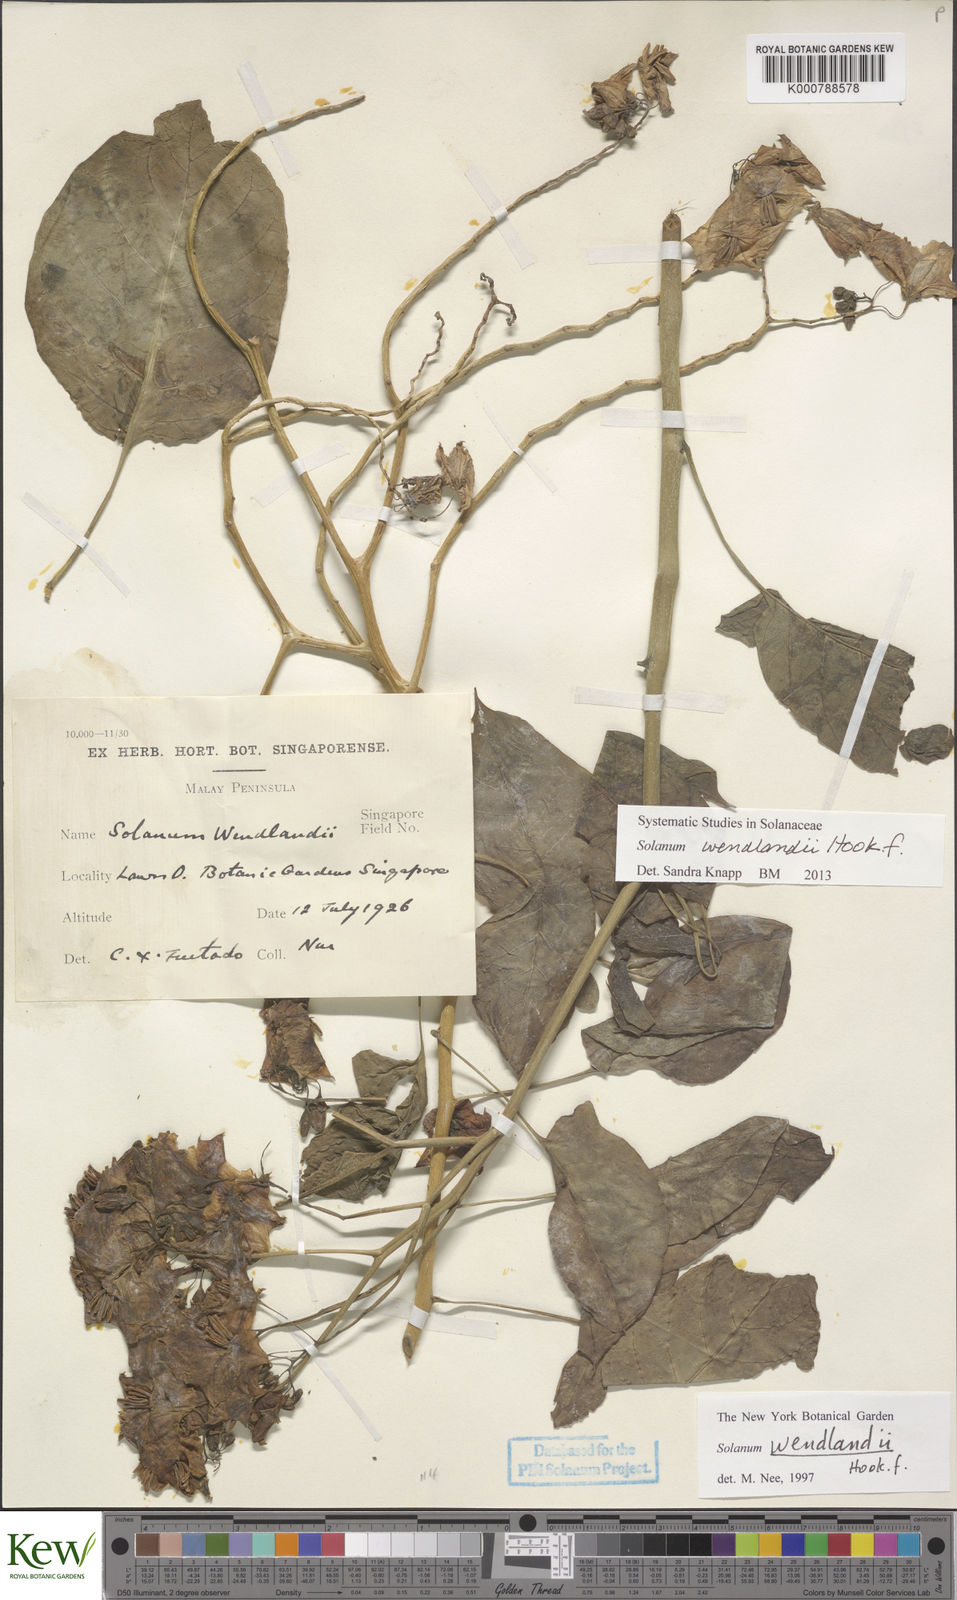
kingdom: Plantae
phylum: Tracheophyta
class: Magnoliopsida
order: Solanales
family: Solanaceae
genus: Solanum
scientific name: Solanum wendlandii
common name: Costa rican nightshade
